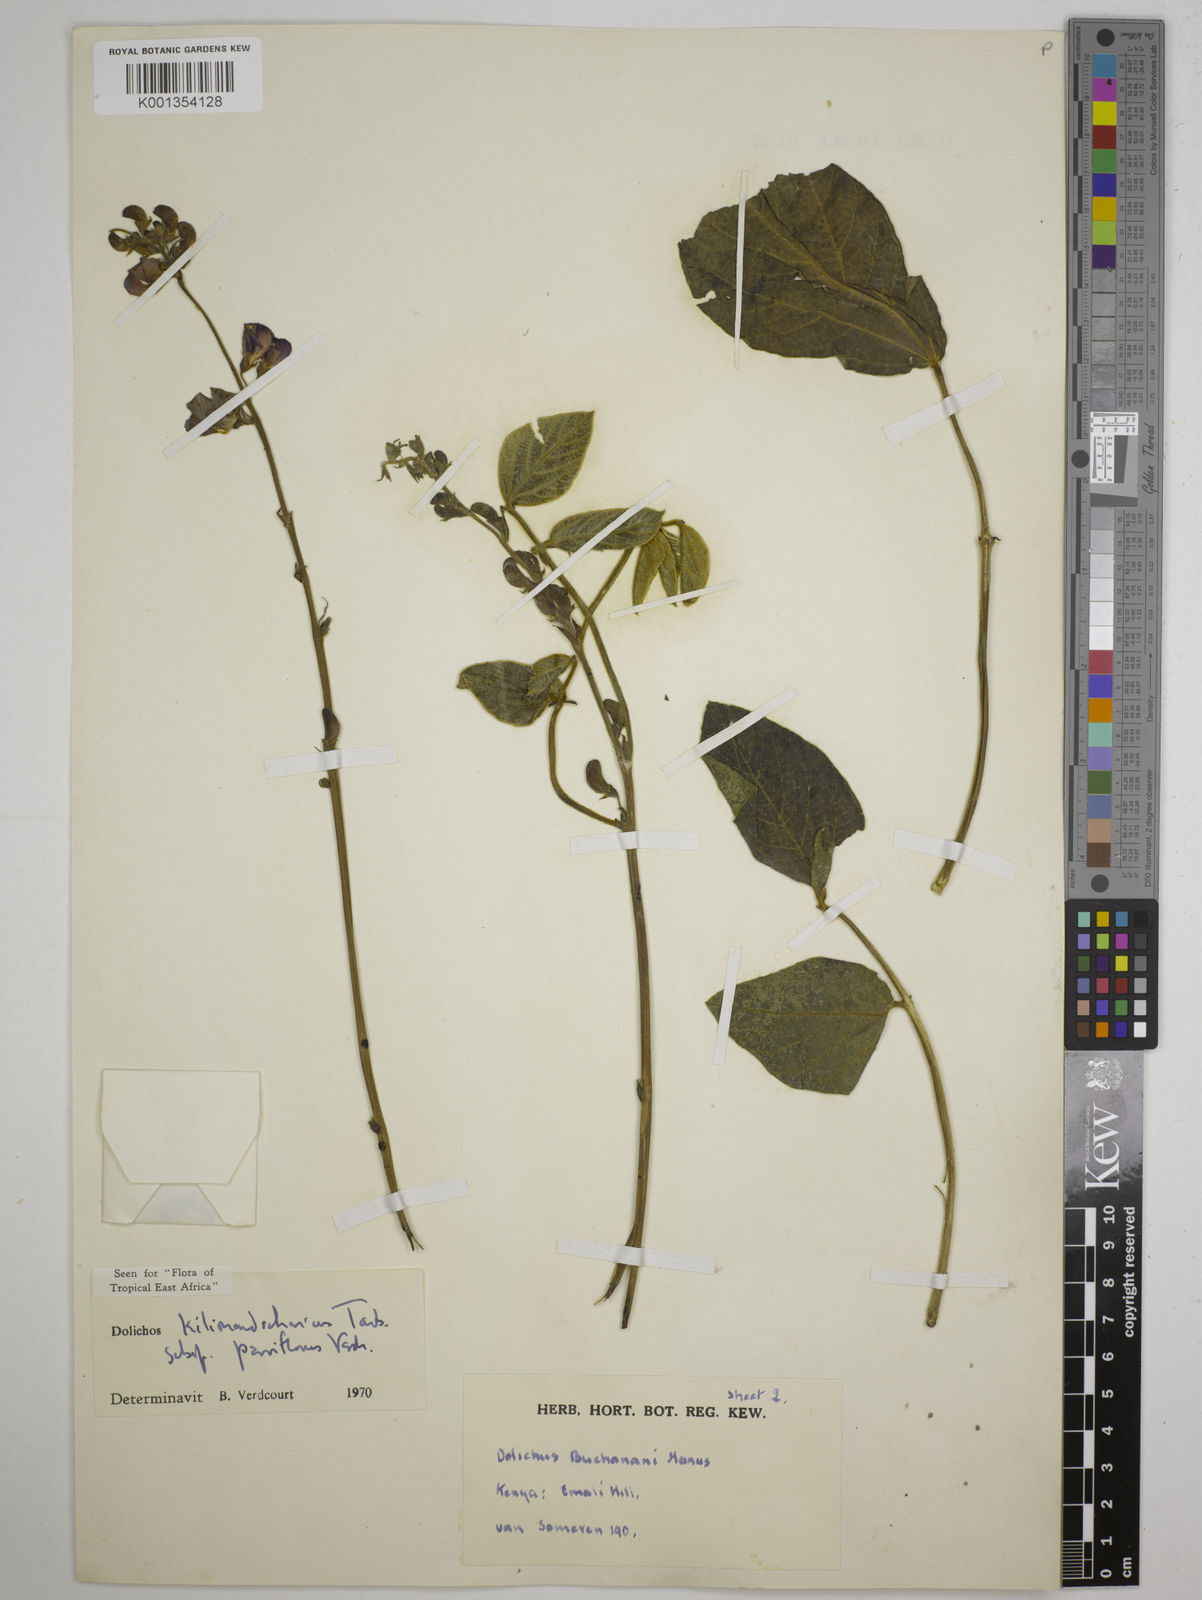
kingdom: Plantae
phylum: Tracheophyta
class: Magnoliopsida
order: Fabales
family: Fabaceae
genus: Dolichos
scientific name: Dolichos
